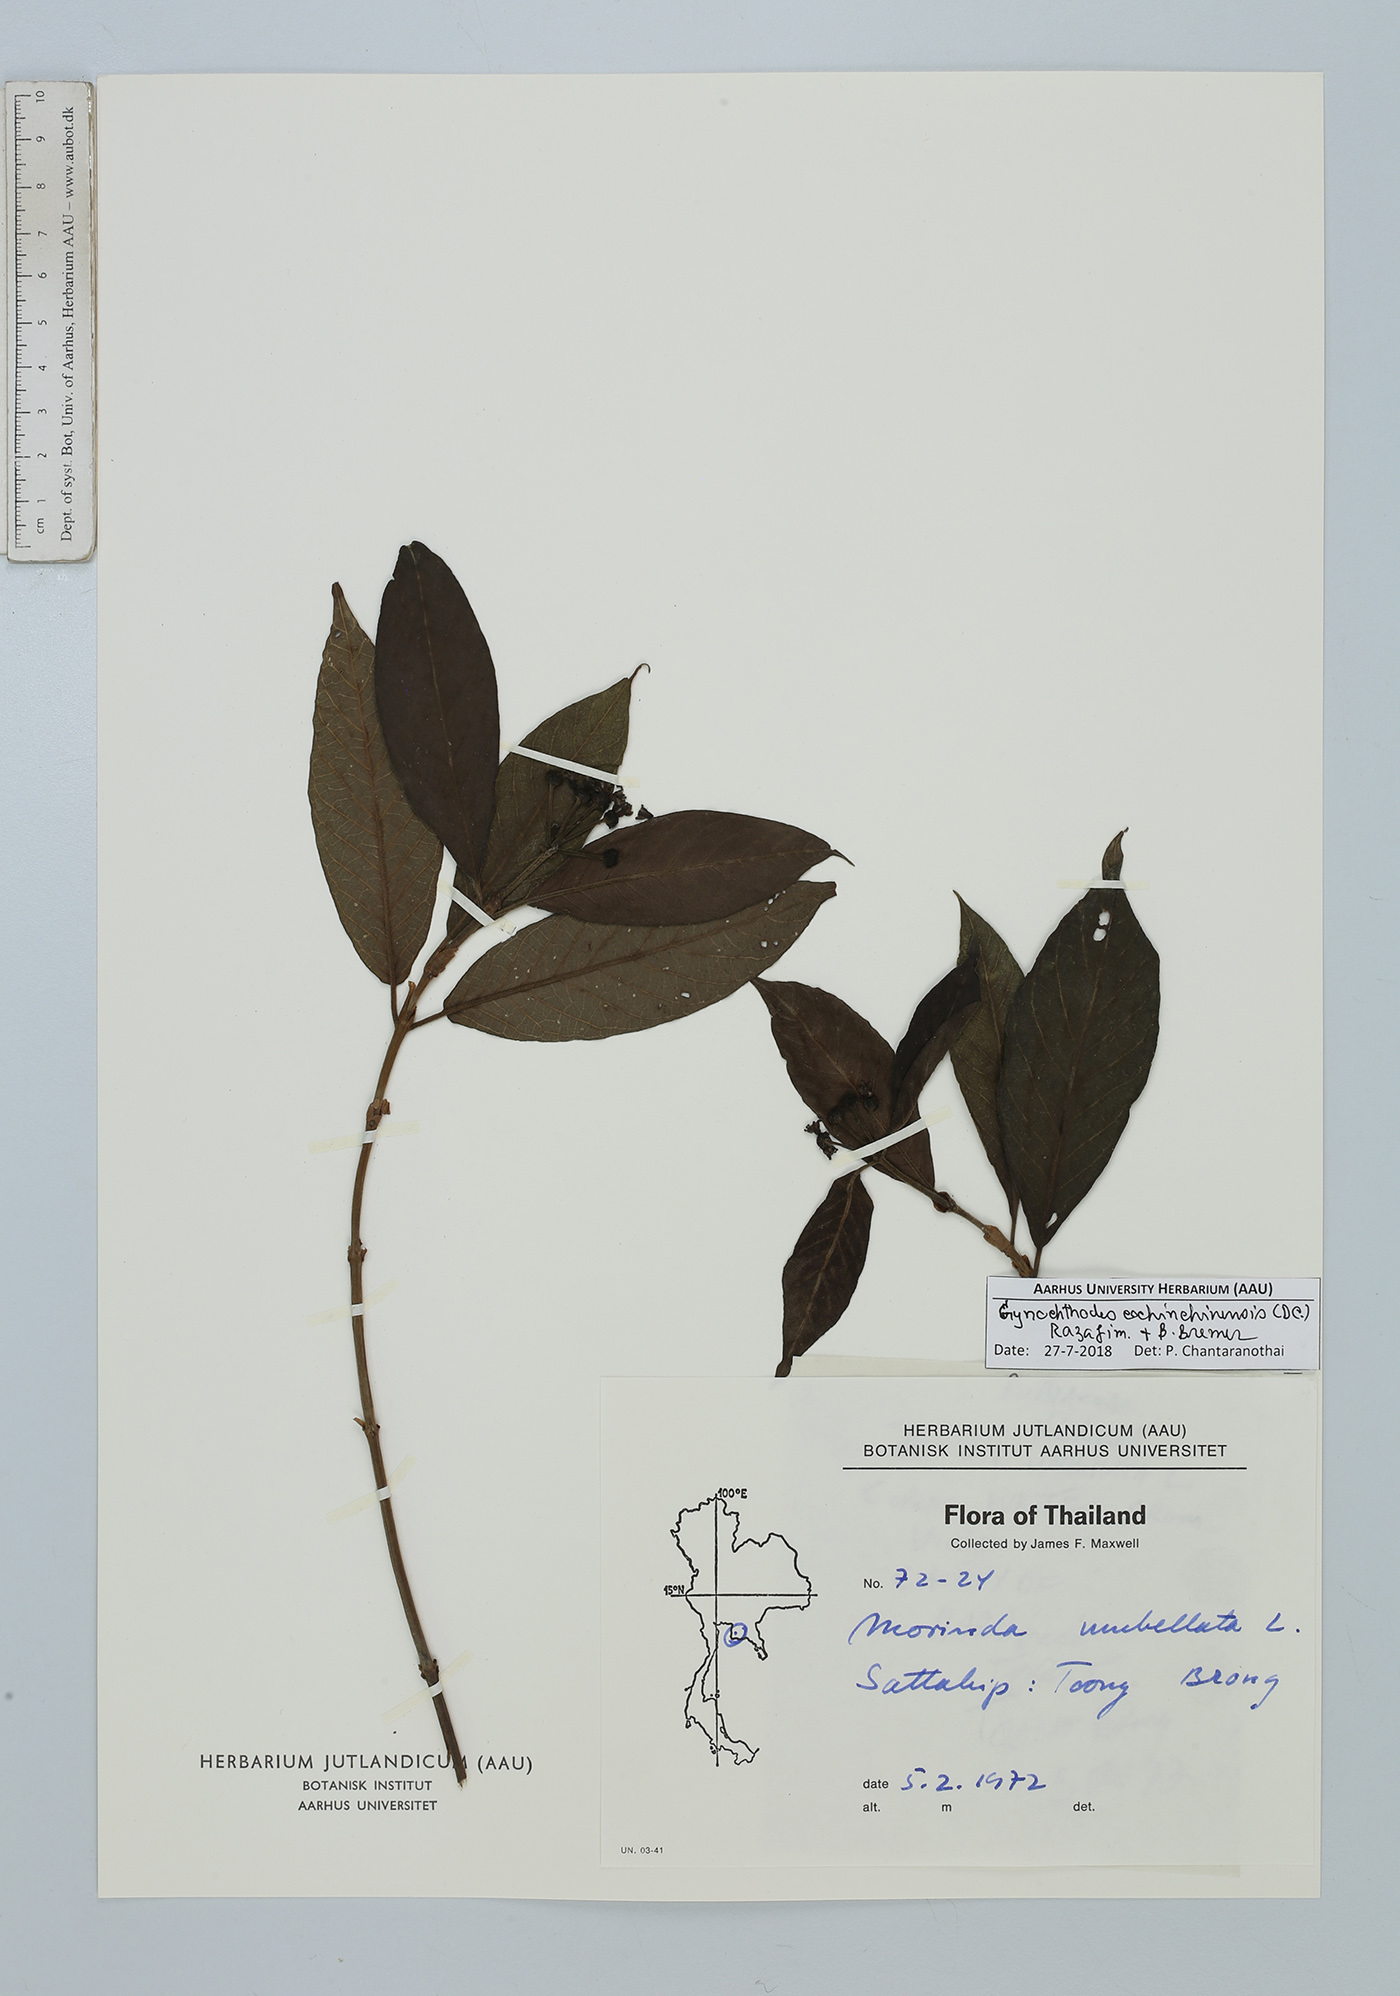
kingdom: Plantae
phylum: Tracheophyta
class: Magnoliopsida
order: Gentianales
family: Rubiaceae
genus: Gynochthodes
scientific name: Gynochthodes cochinchinensis
